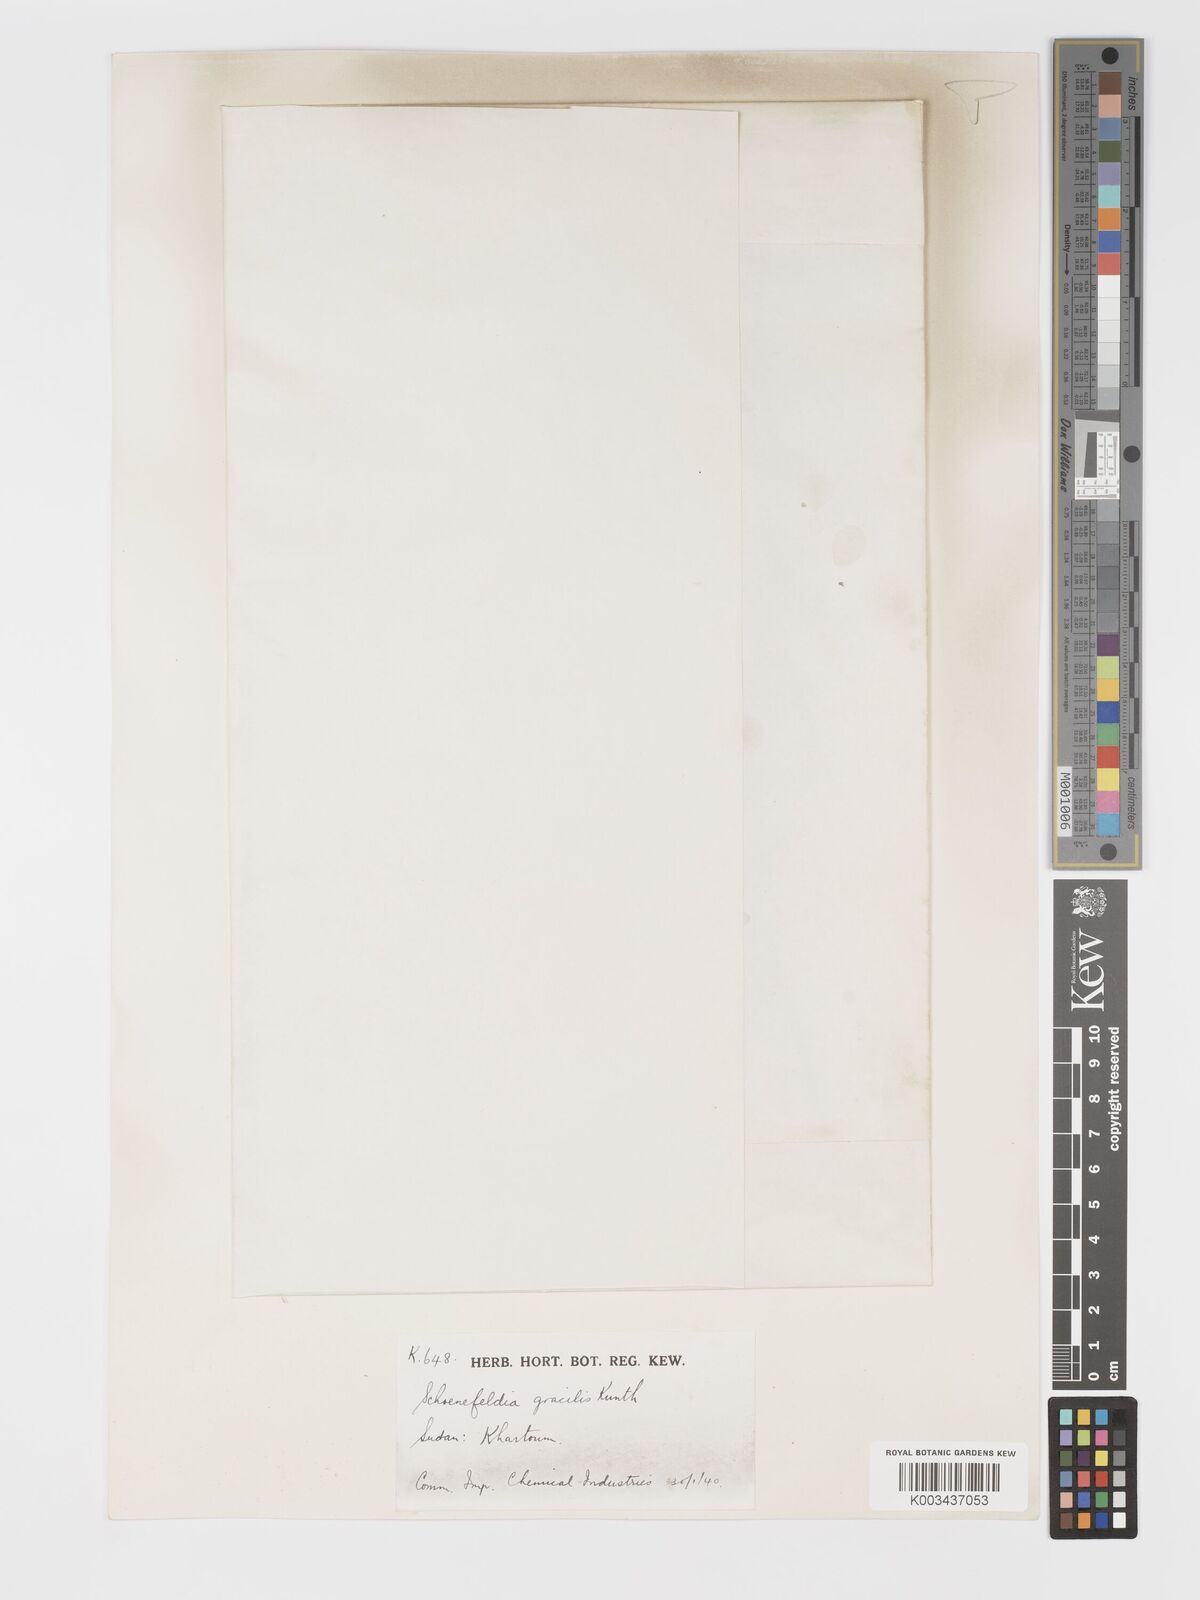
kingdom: Plantae
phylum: Tracheophyta
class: Liliopsida
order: Poales
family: Poaceae
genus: Schoenefeldia
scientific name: Schoenefeldia gracilis
